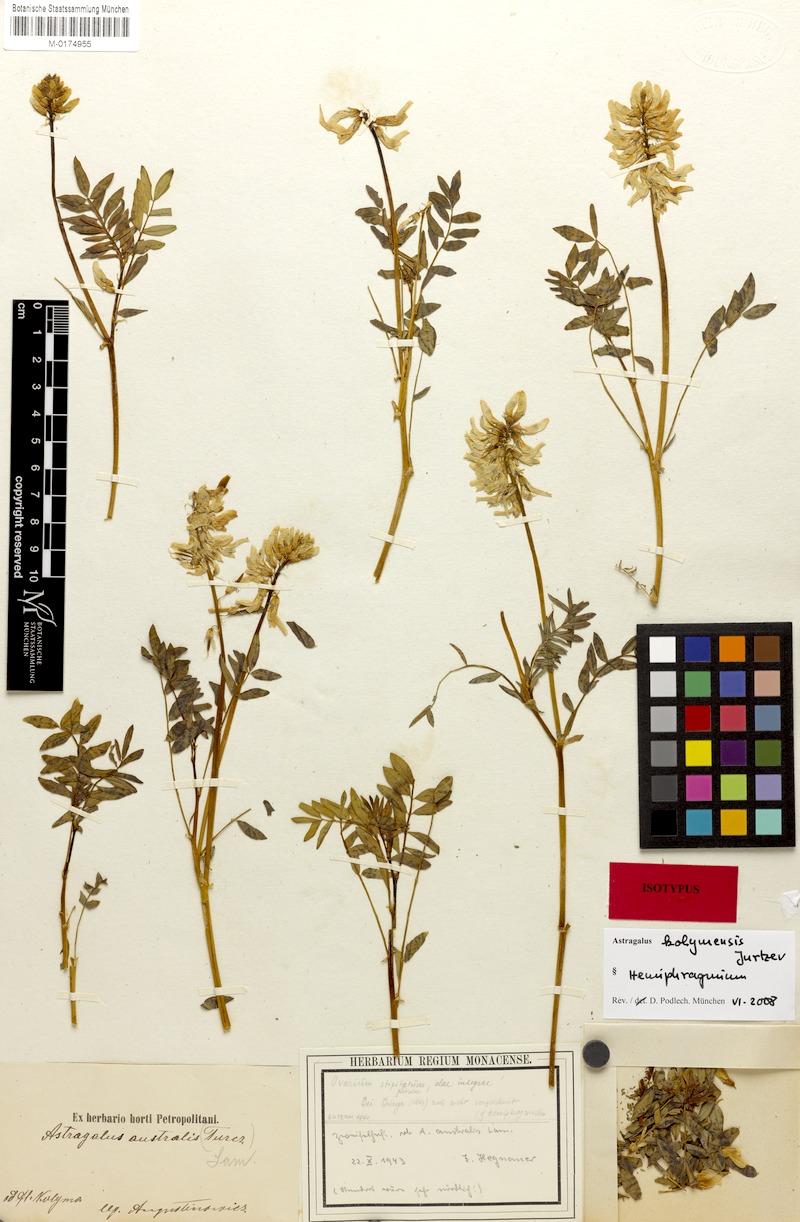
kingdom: Plantae
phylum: Tracheophyta
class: Magnoliopsida
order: Fabales
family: Fabaceae
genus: Astragalus
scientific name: Astragalus kolymensis
